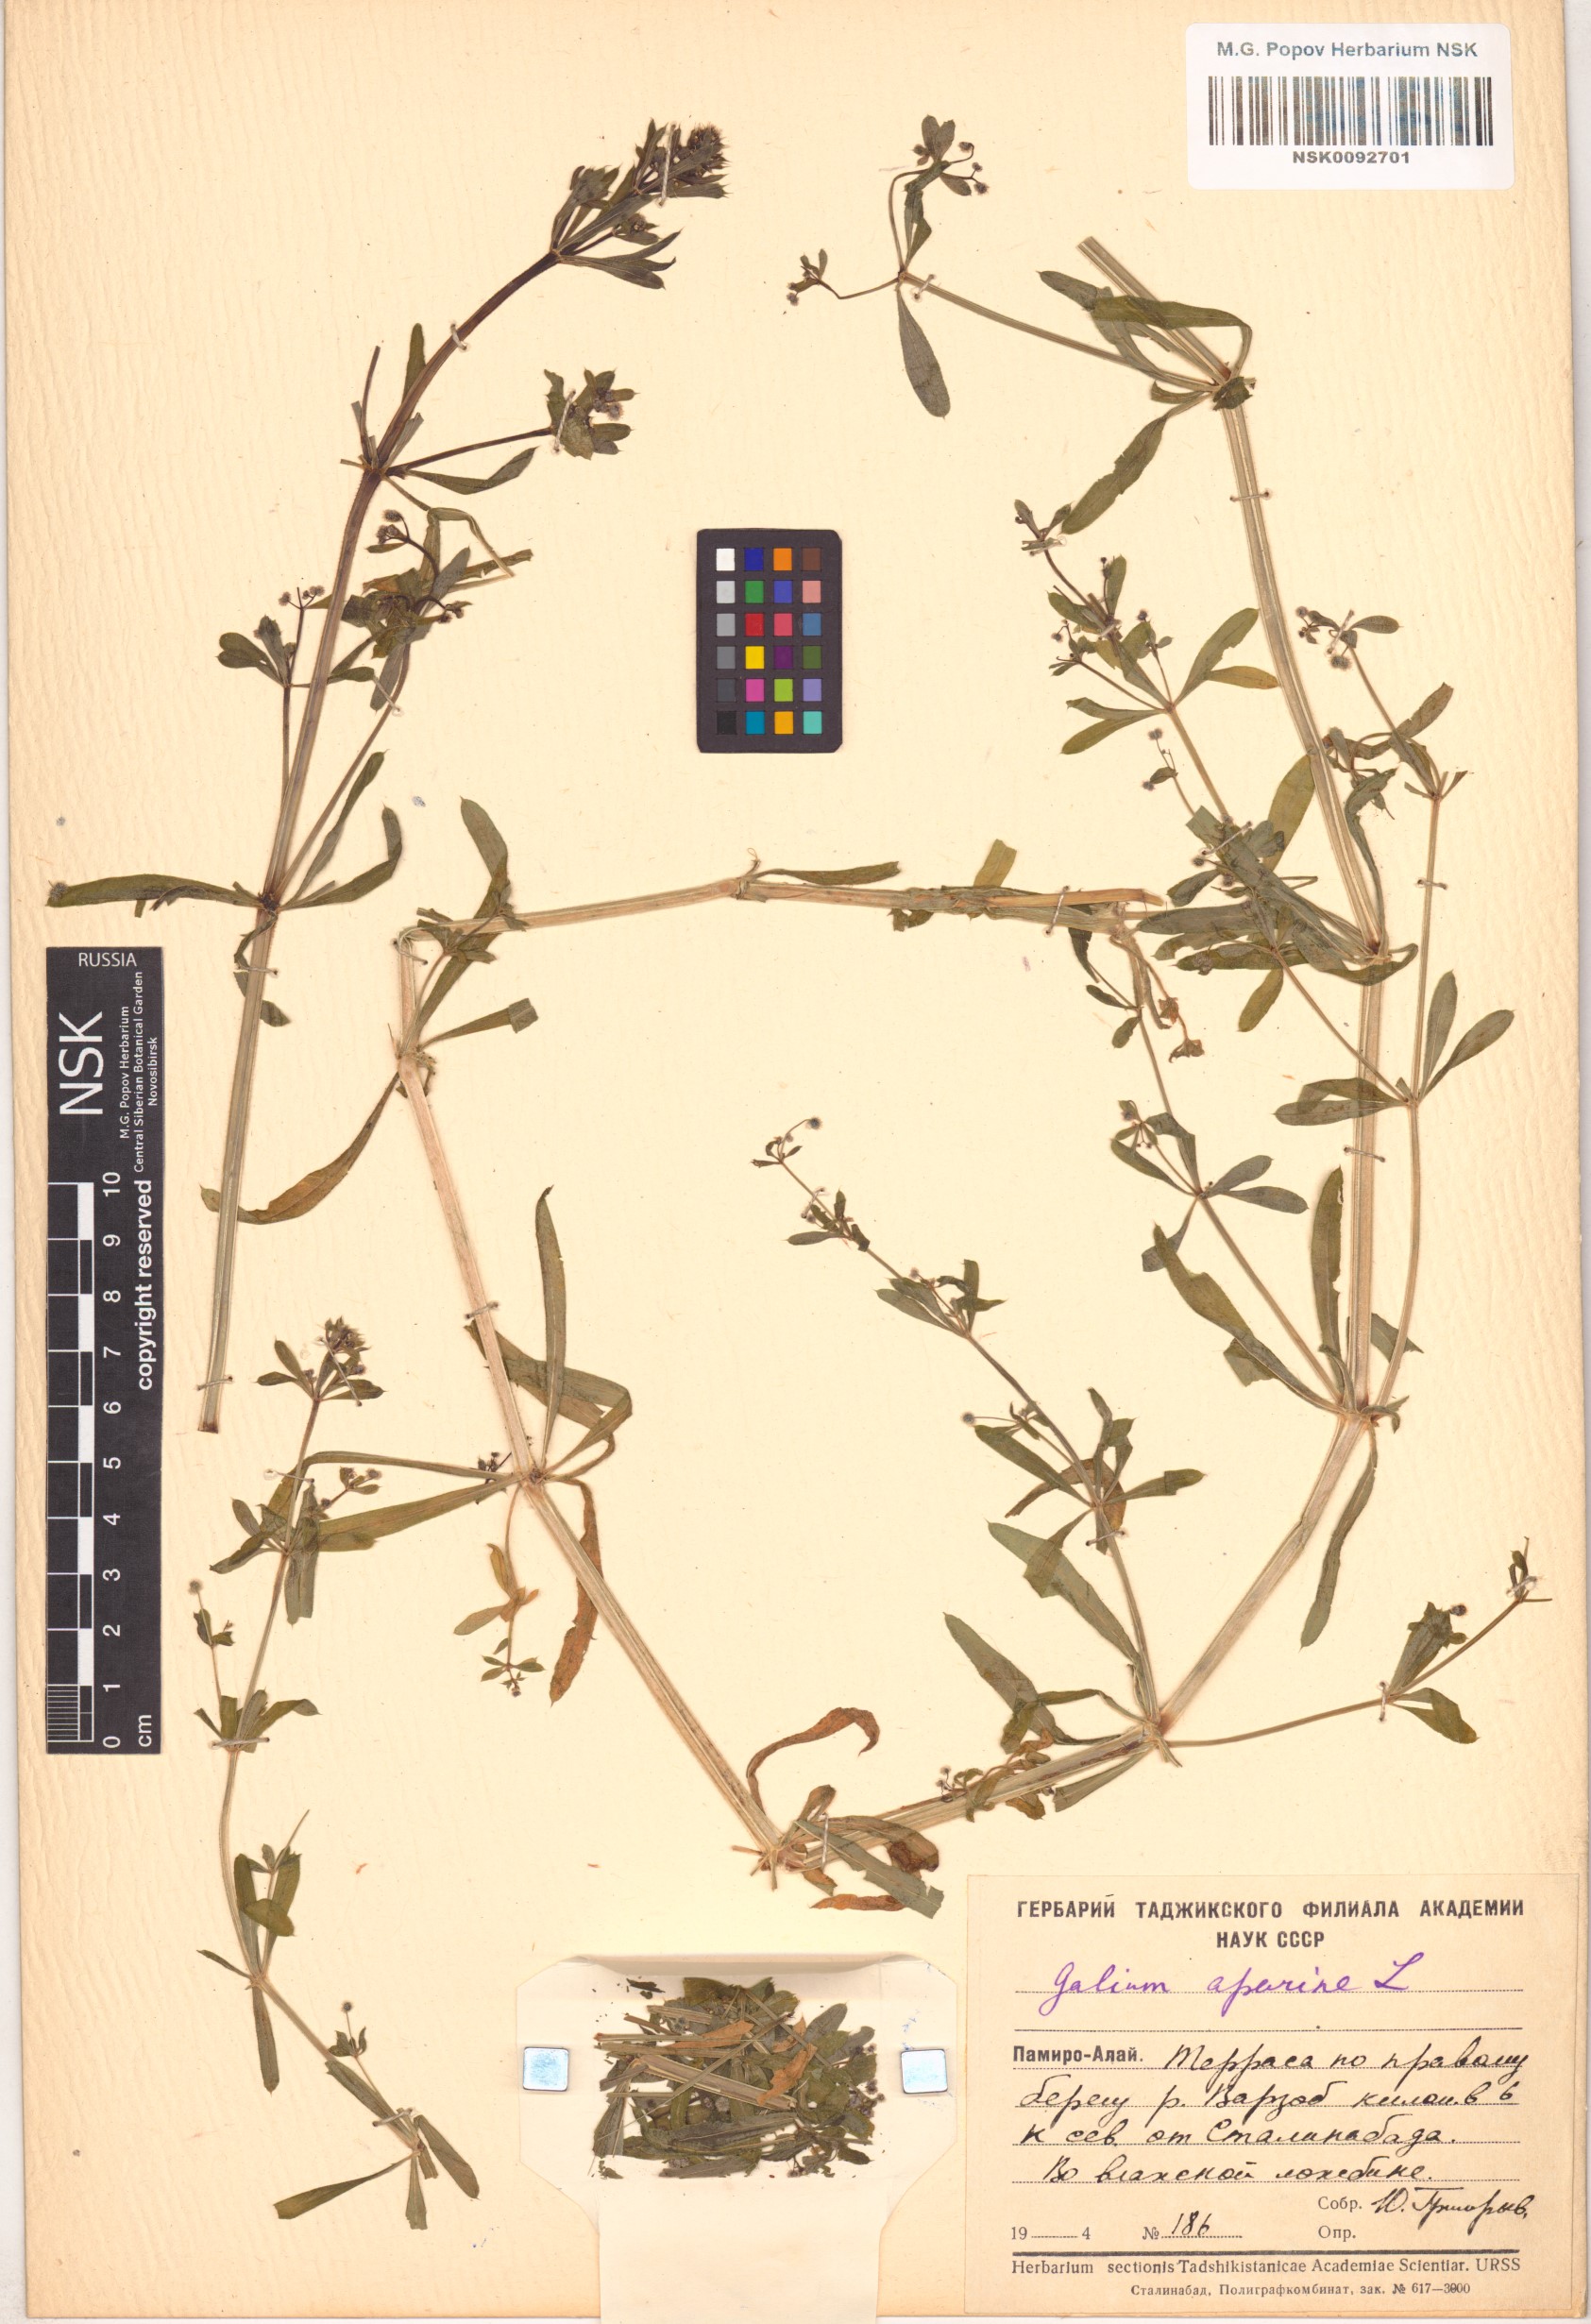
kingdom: Plantae
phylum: Tracheophyta
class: Magnoliopsida
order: Gentianales
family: Rubiaceae
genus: Galium
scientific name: Galium aparine
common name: Cleavers
